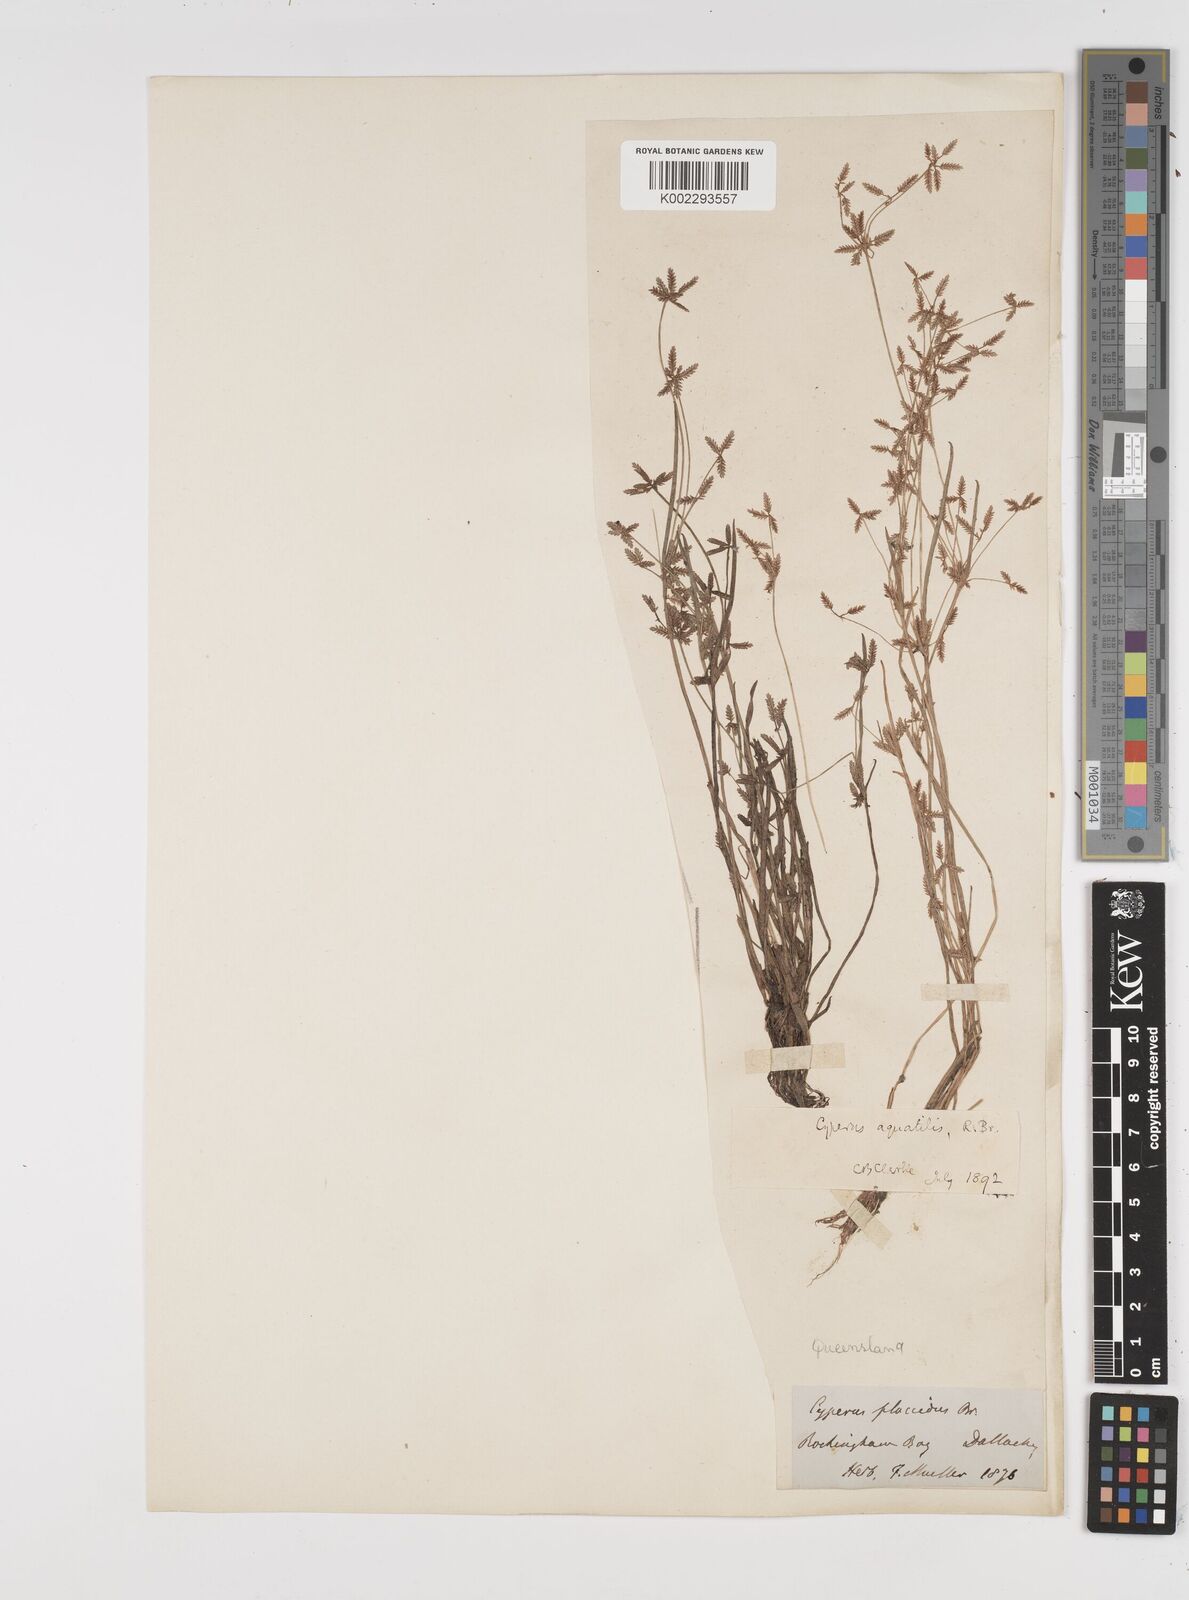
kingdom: Plantae
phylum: Tracheophyta
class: Liliopsida
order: Poales
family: Cyperaceae
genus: Cyperus
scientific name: Cyperus aquatilis
